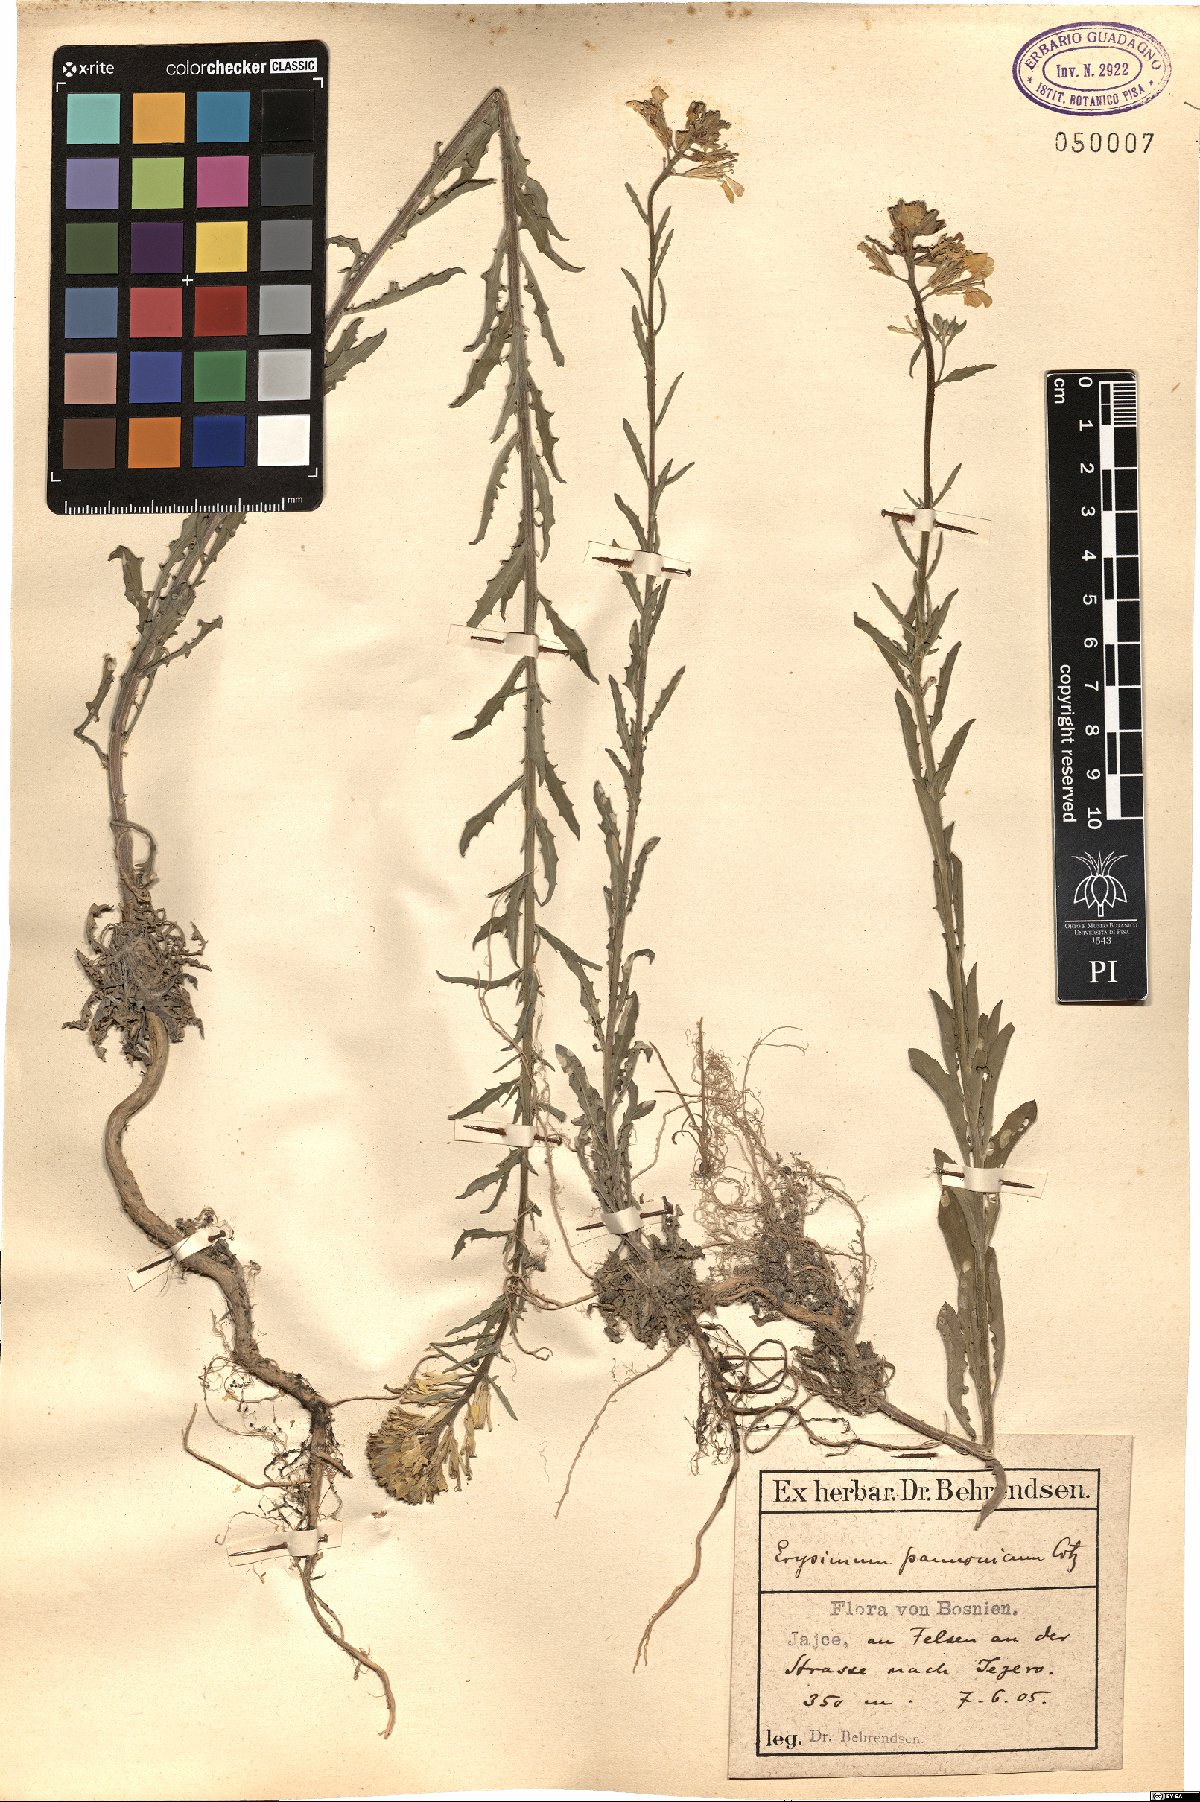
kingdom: Plantae
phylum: Tracheophyta
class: Magnoliopsida
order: Brassicales
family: Brassicaceae
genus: Erysimum
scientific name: Erysimum odoratum
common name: Smelly wallflower
